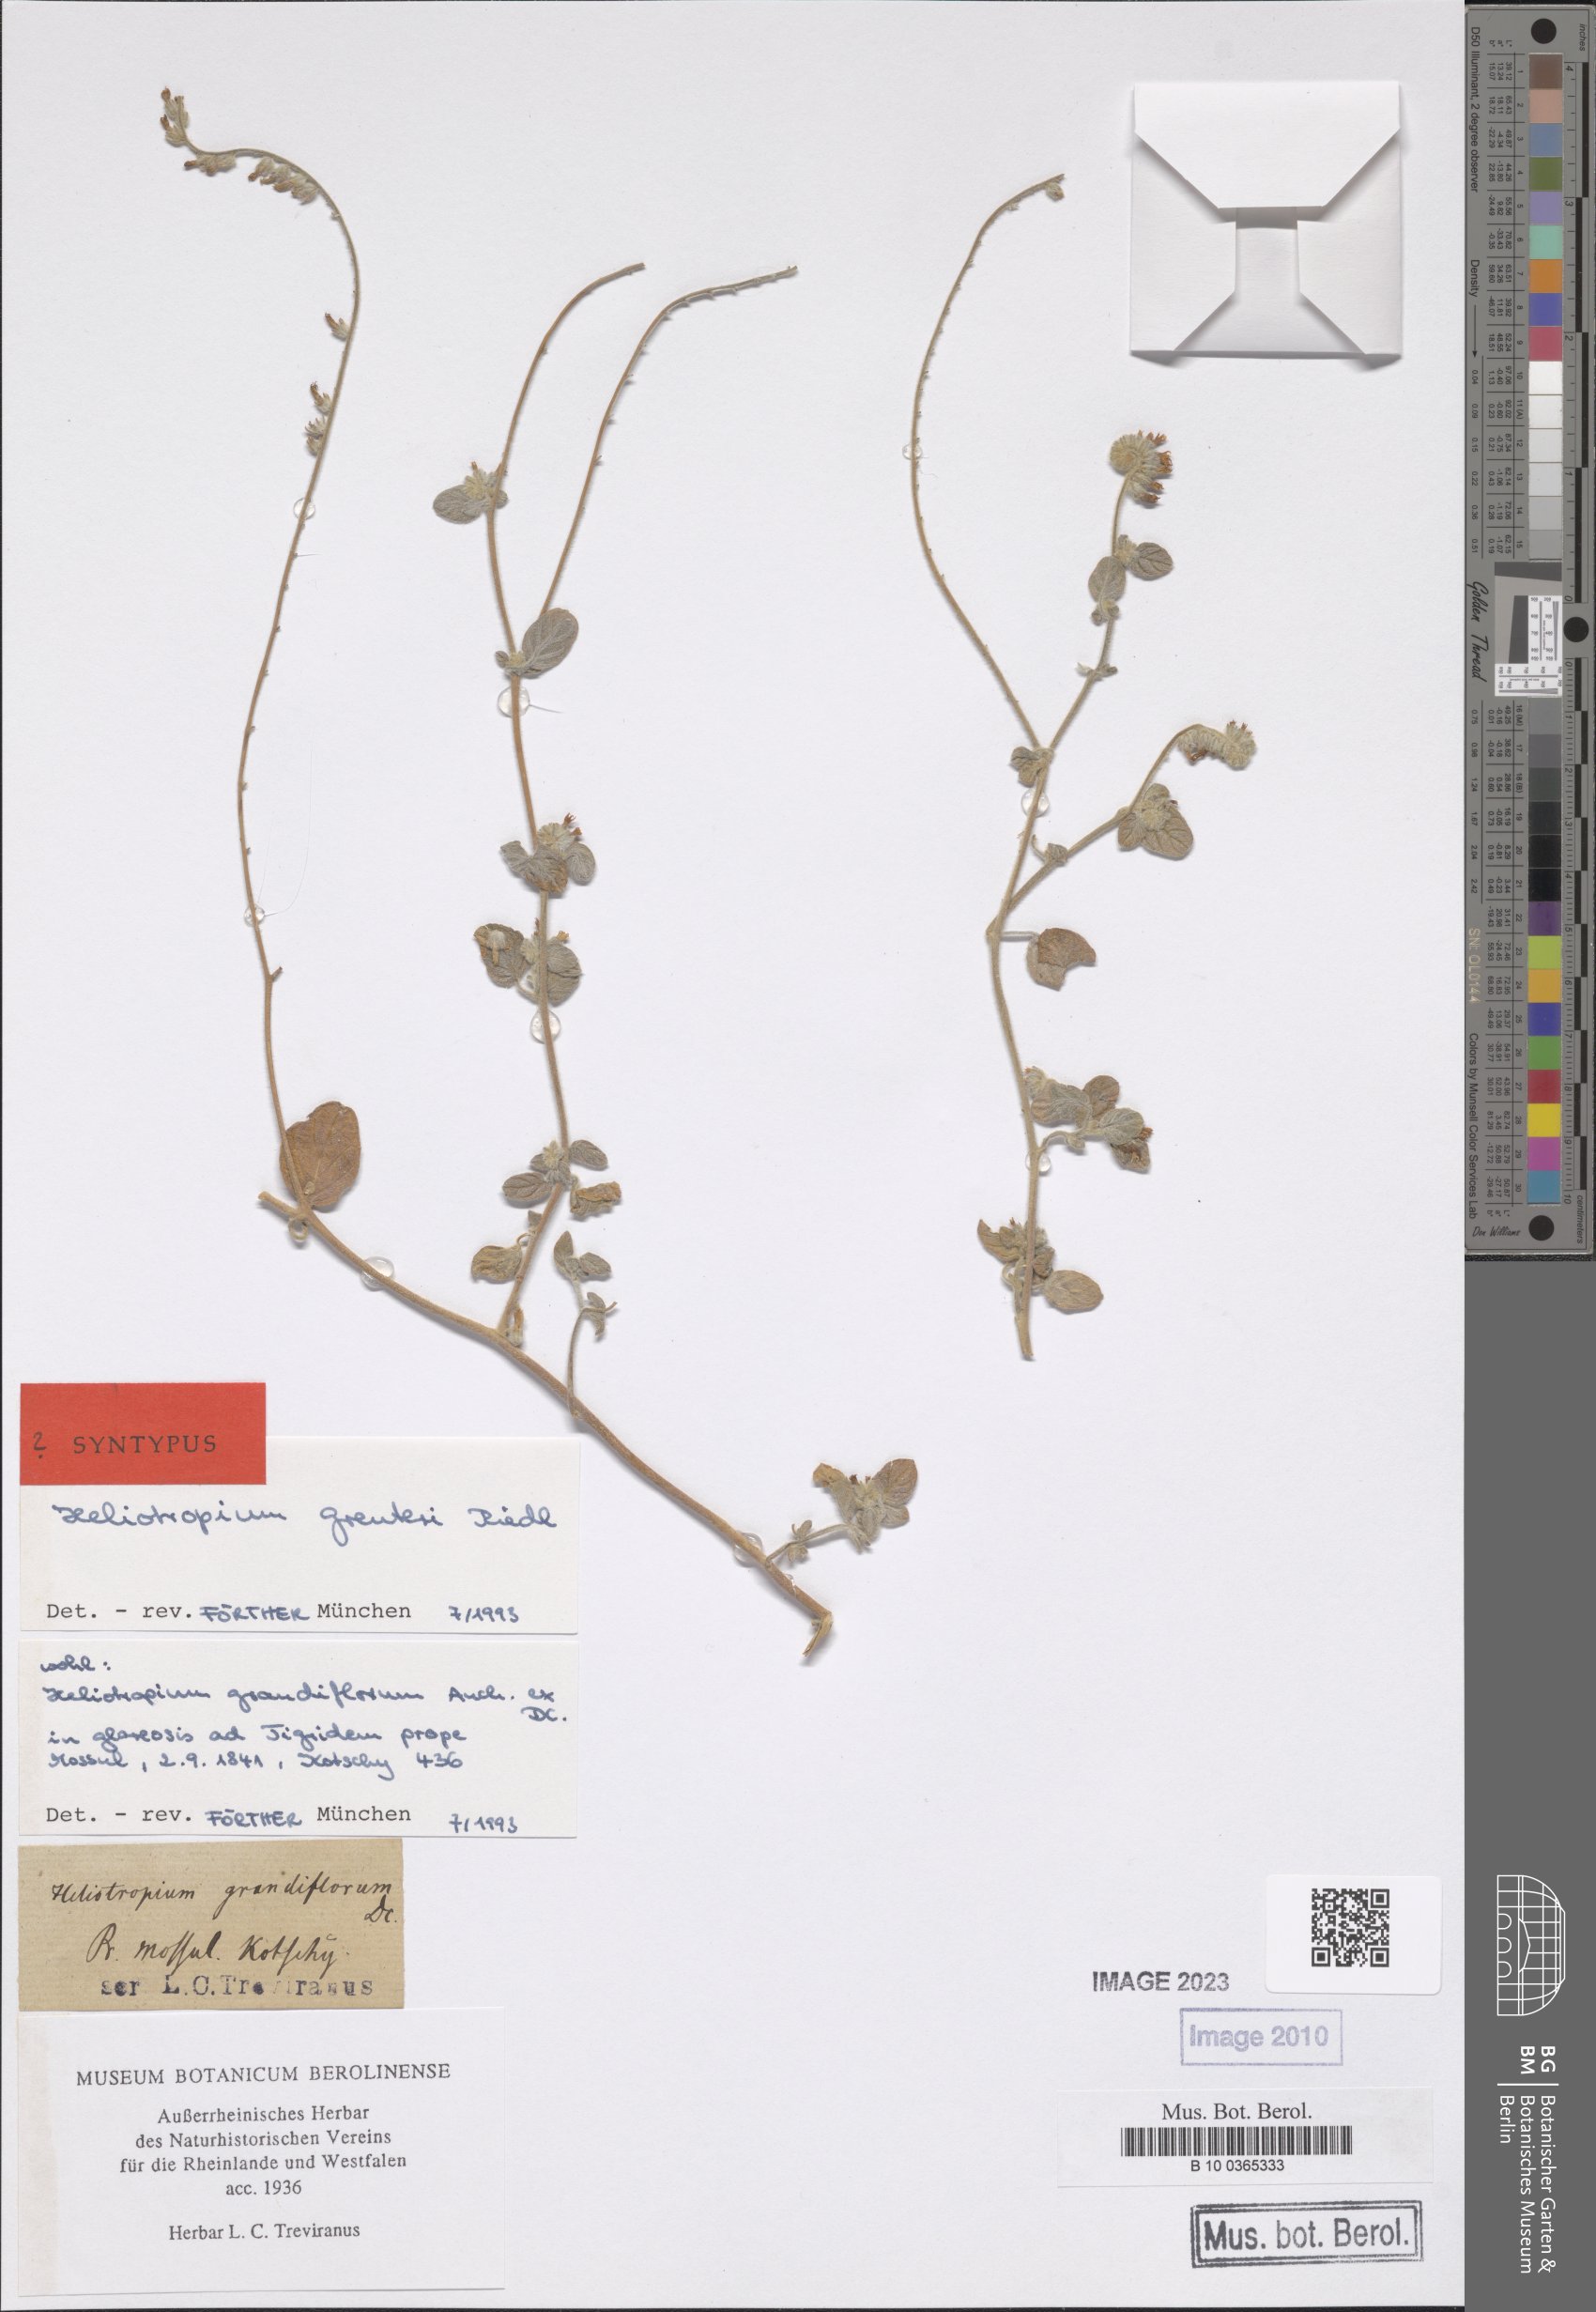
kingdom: Plantae
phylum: Tracheophyta
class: Magnoliopsida
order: Boraginales
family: Heliotropiaceae
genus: Heliotropium
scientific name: Heliotropium greuteri
